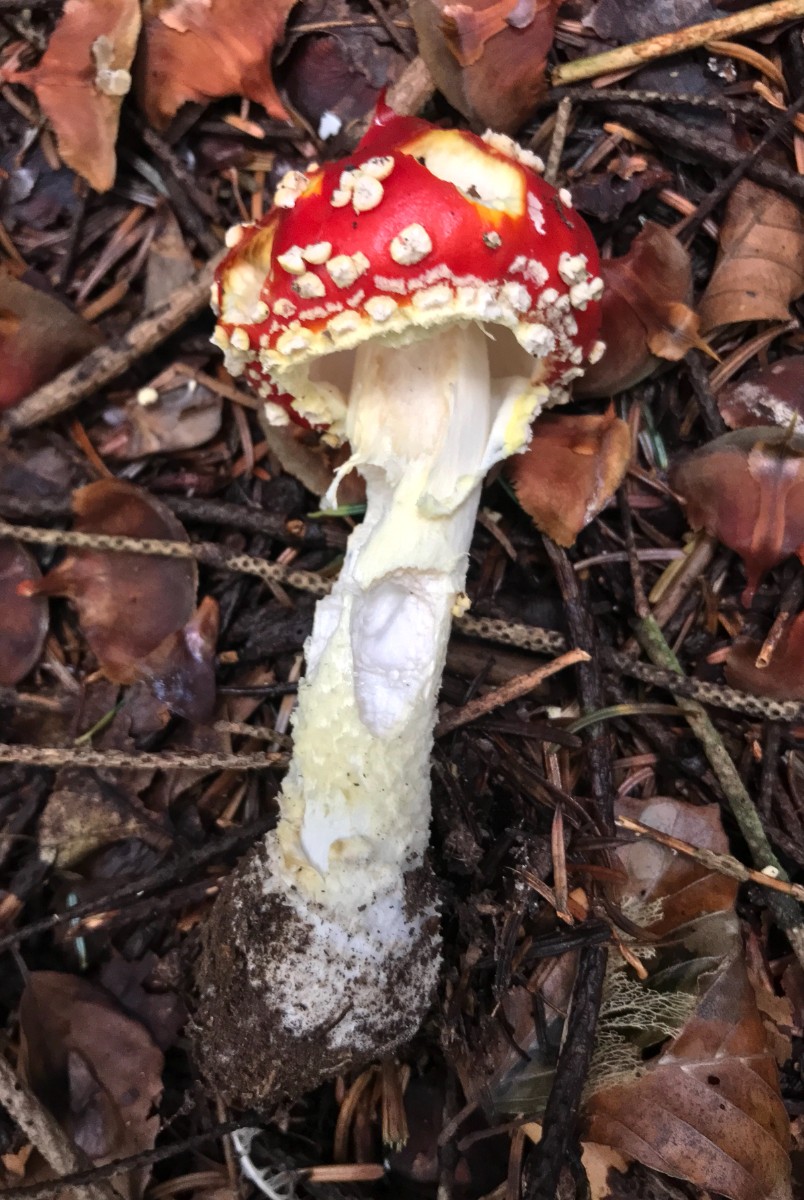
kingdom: Fungi
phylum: Basidiomycota
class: Agaricomycetes
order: Agaricales
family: Amanitaceae
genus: Amanita
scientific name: Amanita muscaria
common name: rød fluesvamp
